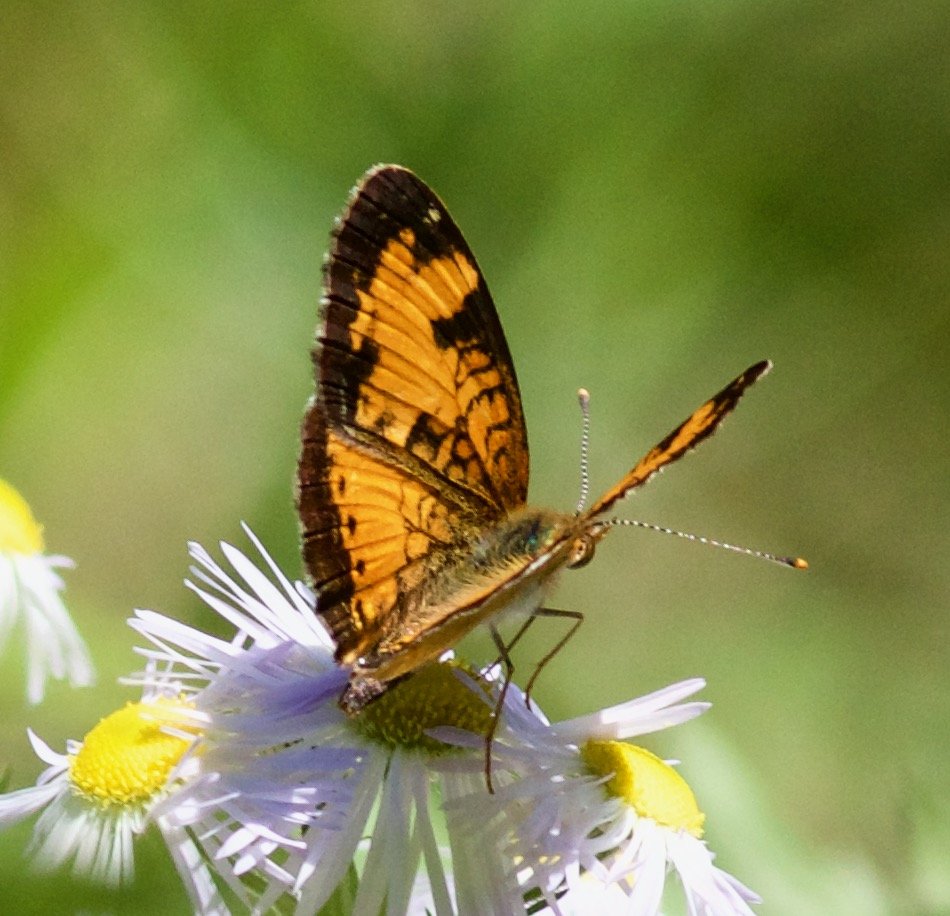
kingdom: Animalia
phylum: Arthropoda
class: Insecta
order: Lepidoptera
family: Nymphalidae
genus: Phyciodes
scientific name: Phyciodes tharos
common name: Northern Crescent
